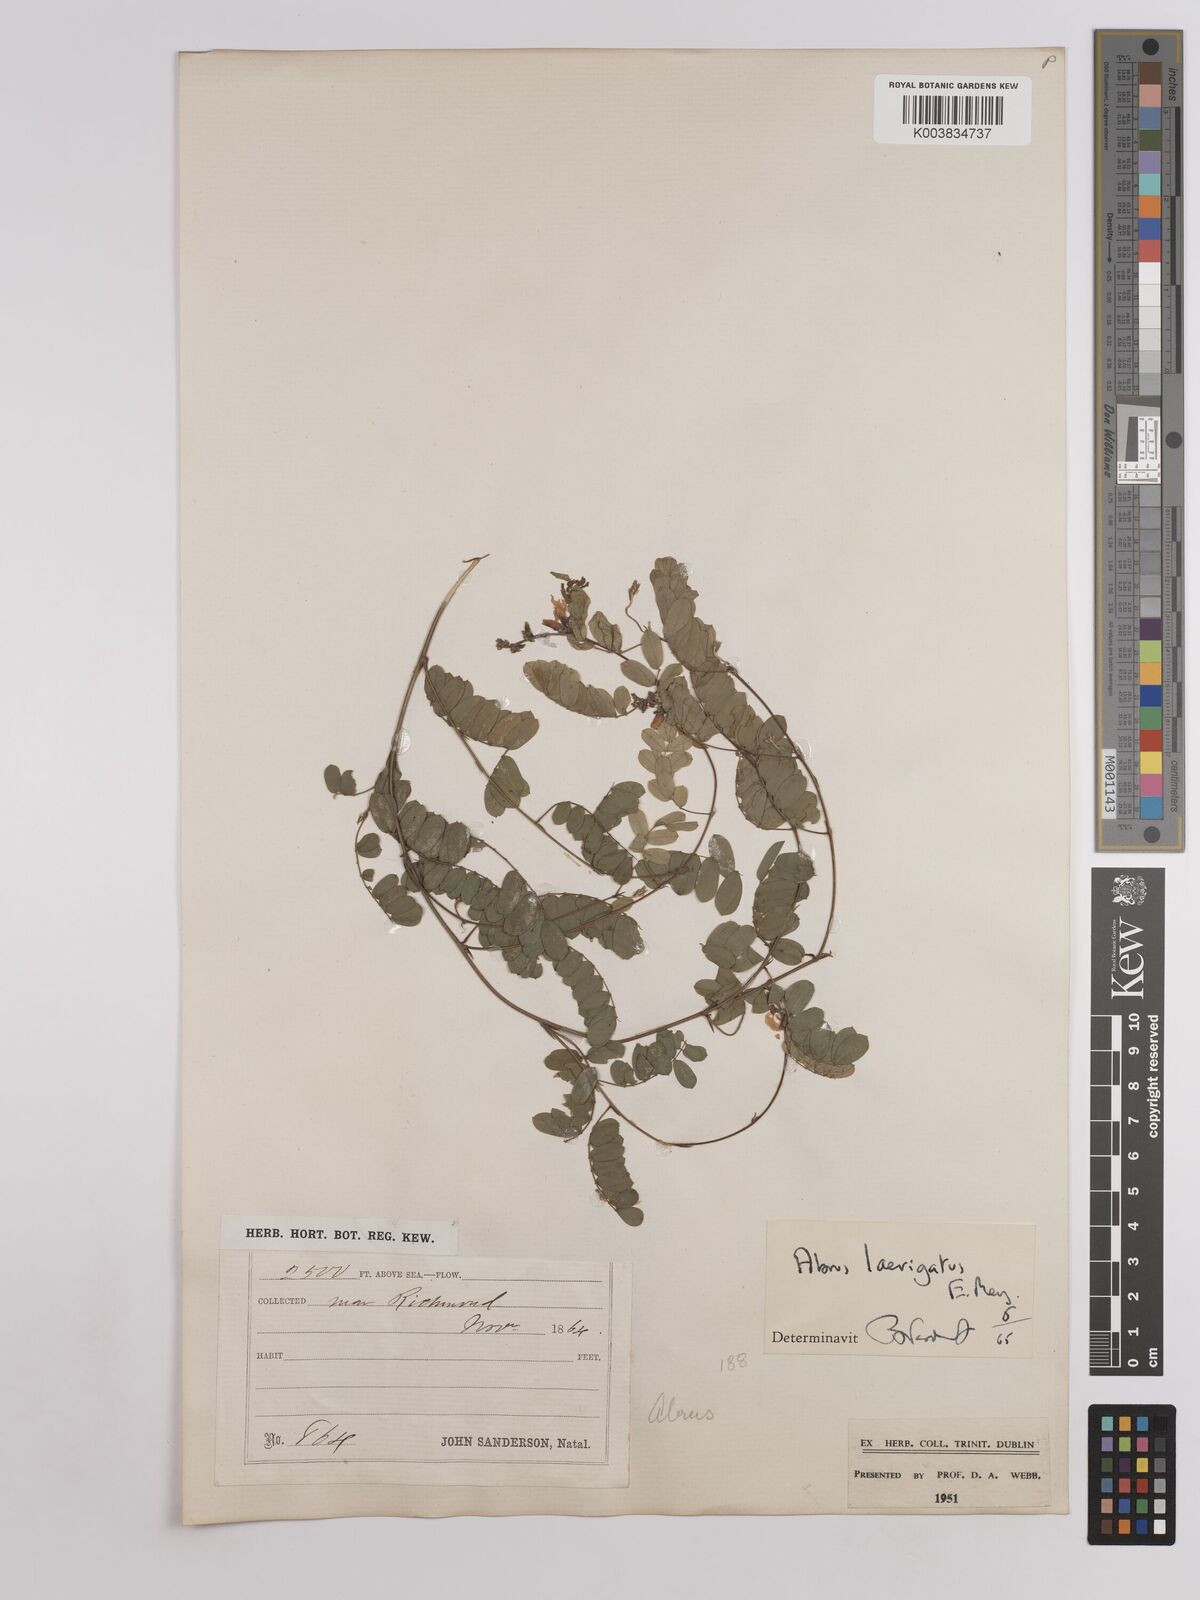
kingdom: Plantae
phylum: Tracheophyta
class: Magnoliopsida
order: Fabales
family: Fabaceae
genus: Abrus
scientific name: Abrus laevigatus
